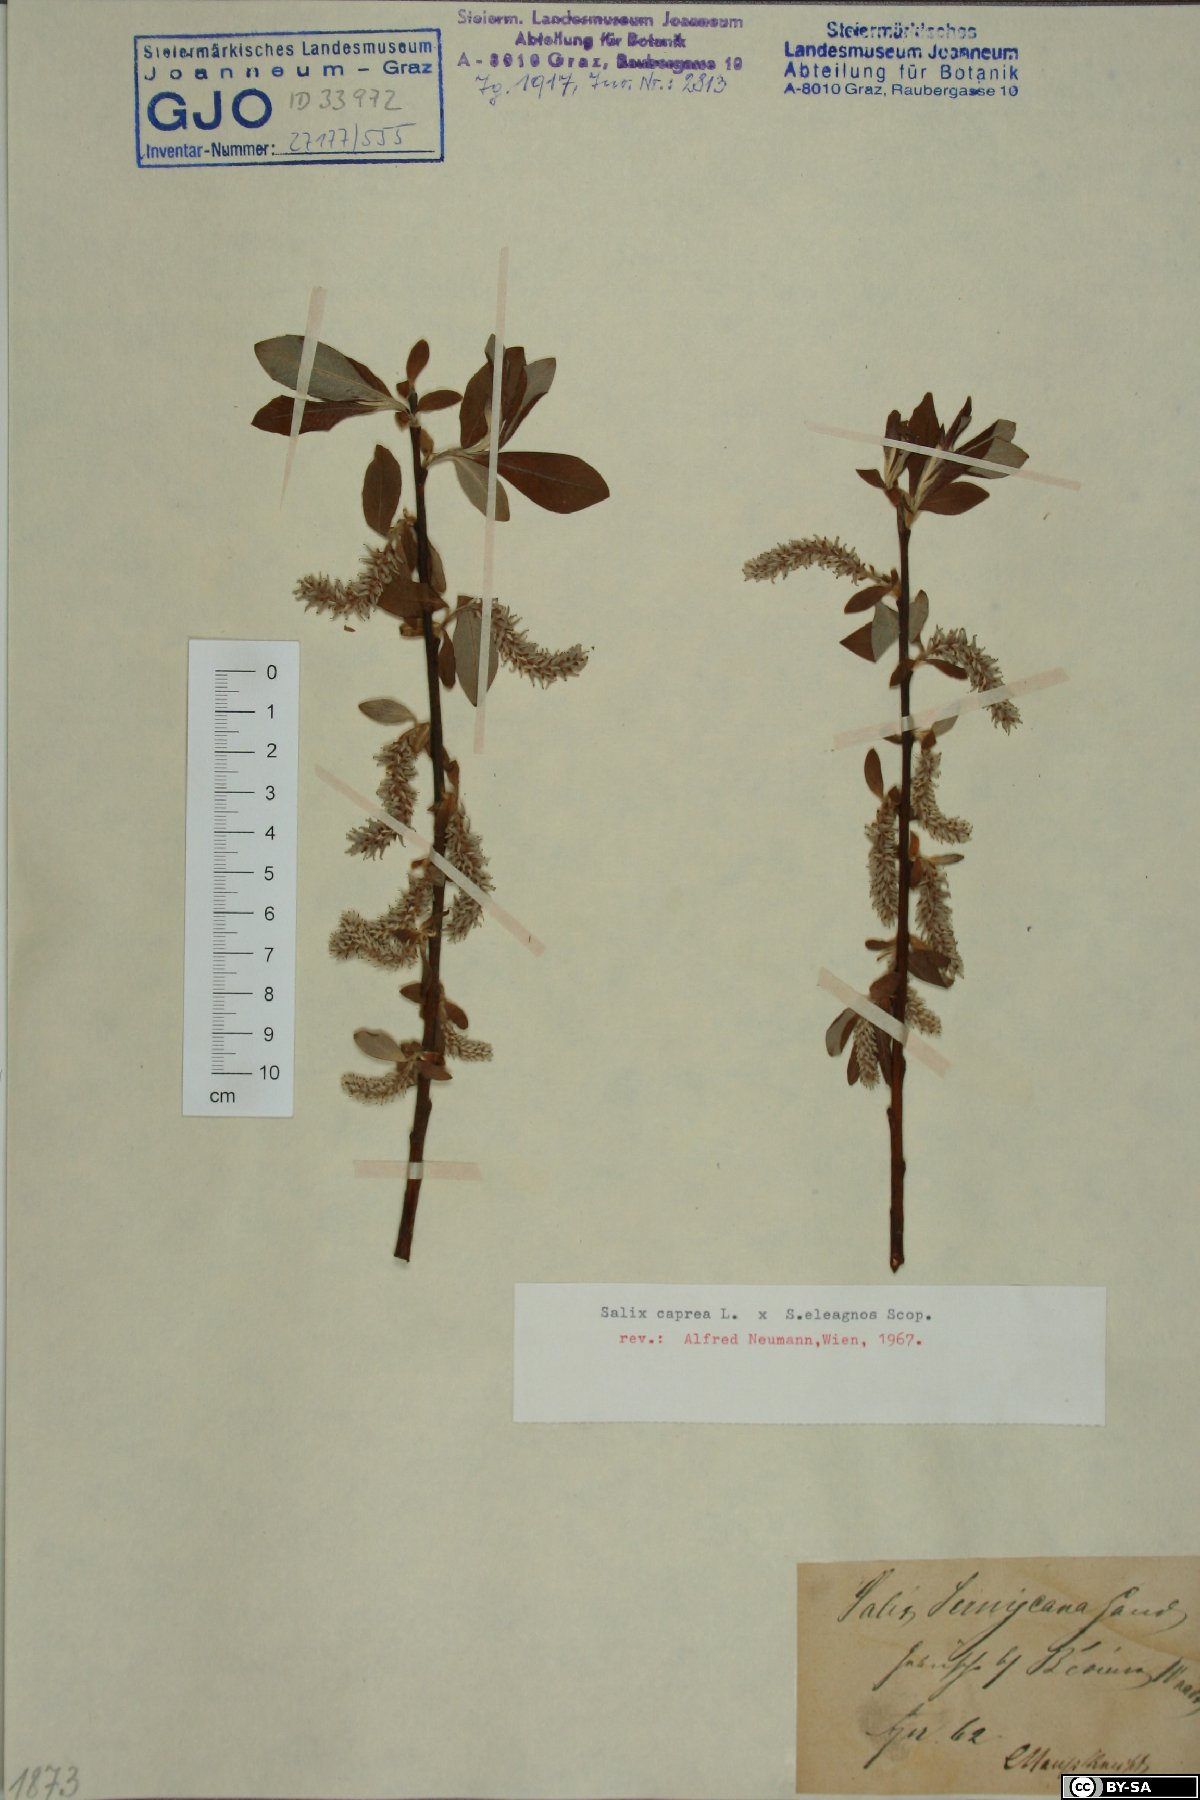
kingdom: Plantae
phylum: Tracheophyta
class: Magnoliopsida
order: Malpighiales
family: Salicaceae
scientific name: Salicaceae
